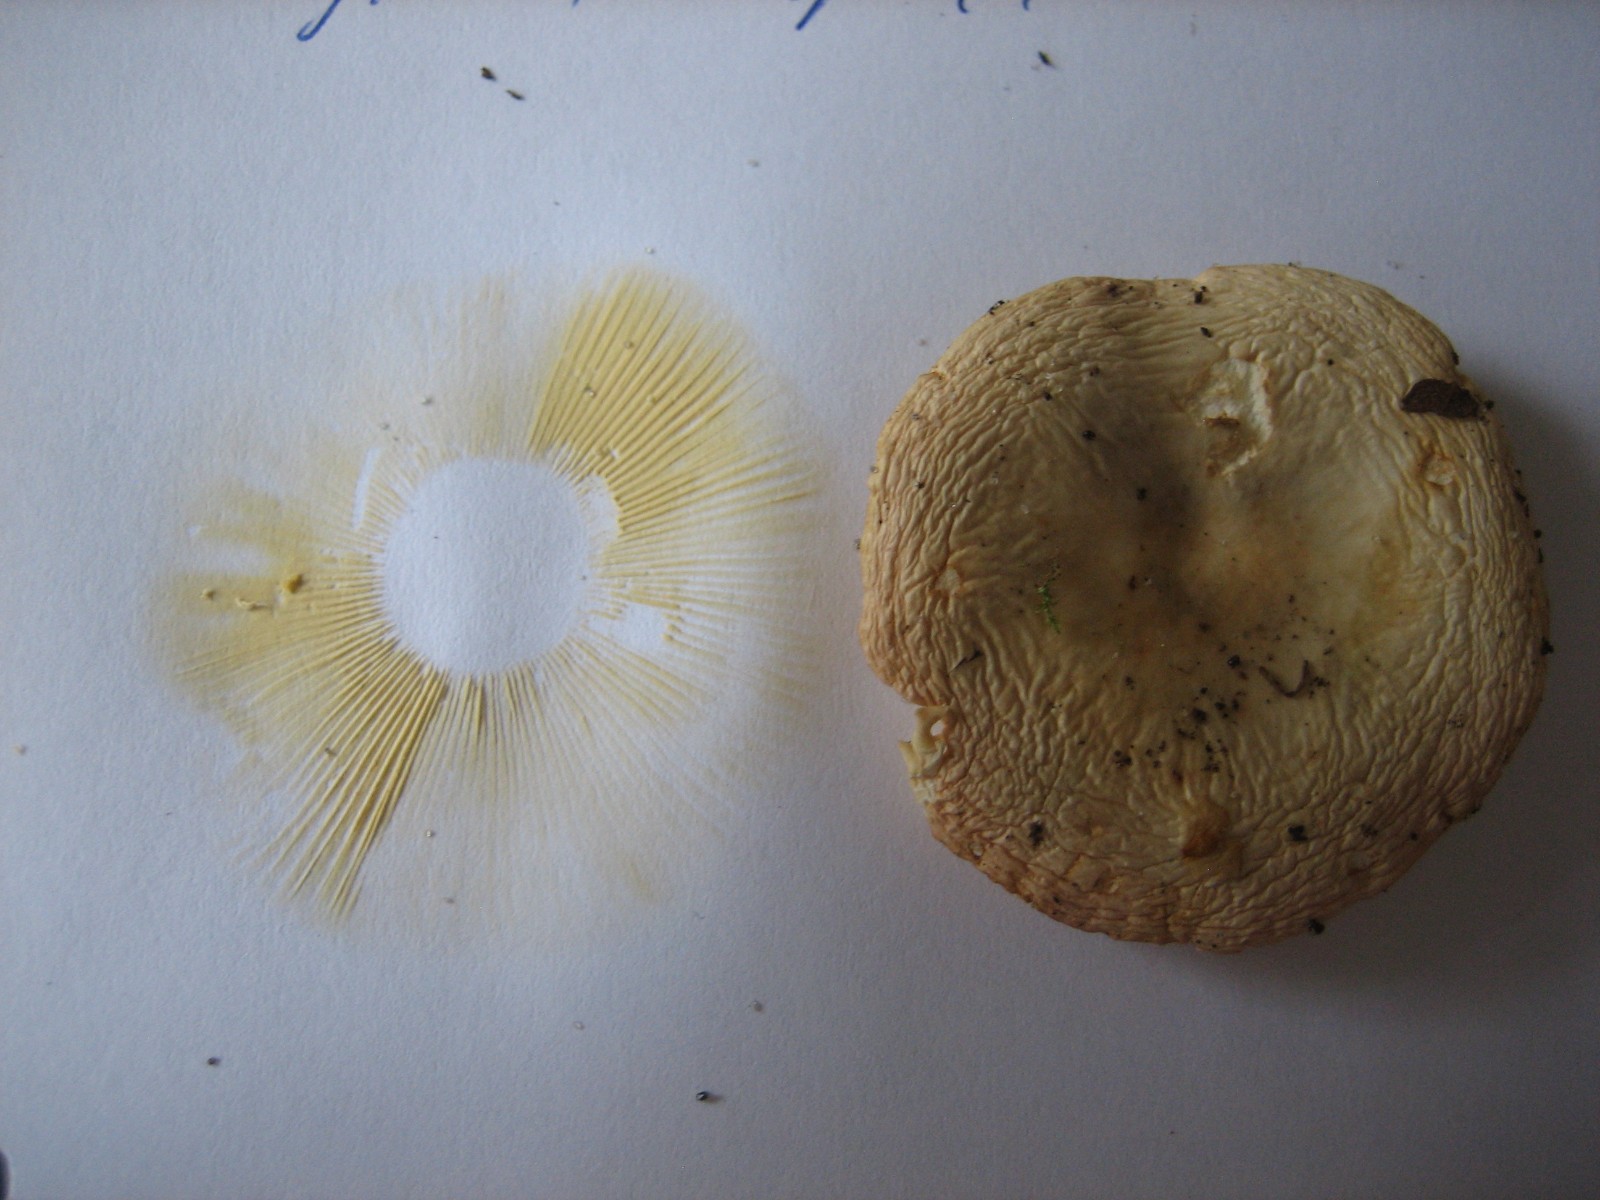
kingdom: Fungi
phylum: Basidiomycota
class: Agaricomycetes
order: Russulales
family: Russulaceae
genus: Russula
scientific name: Russula
